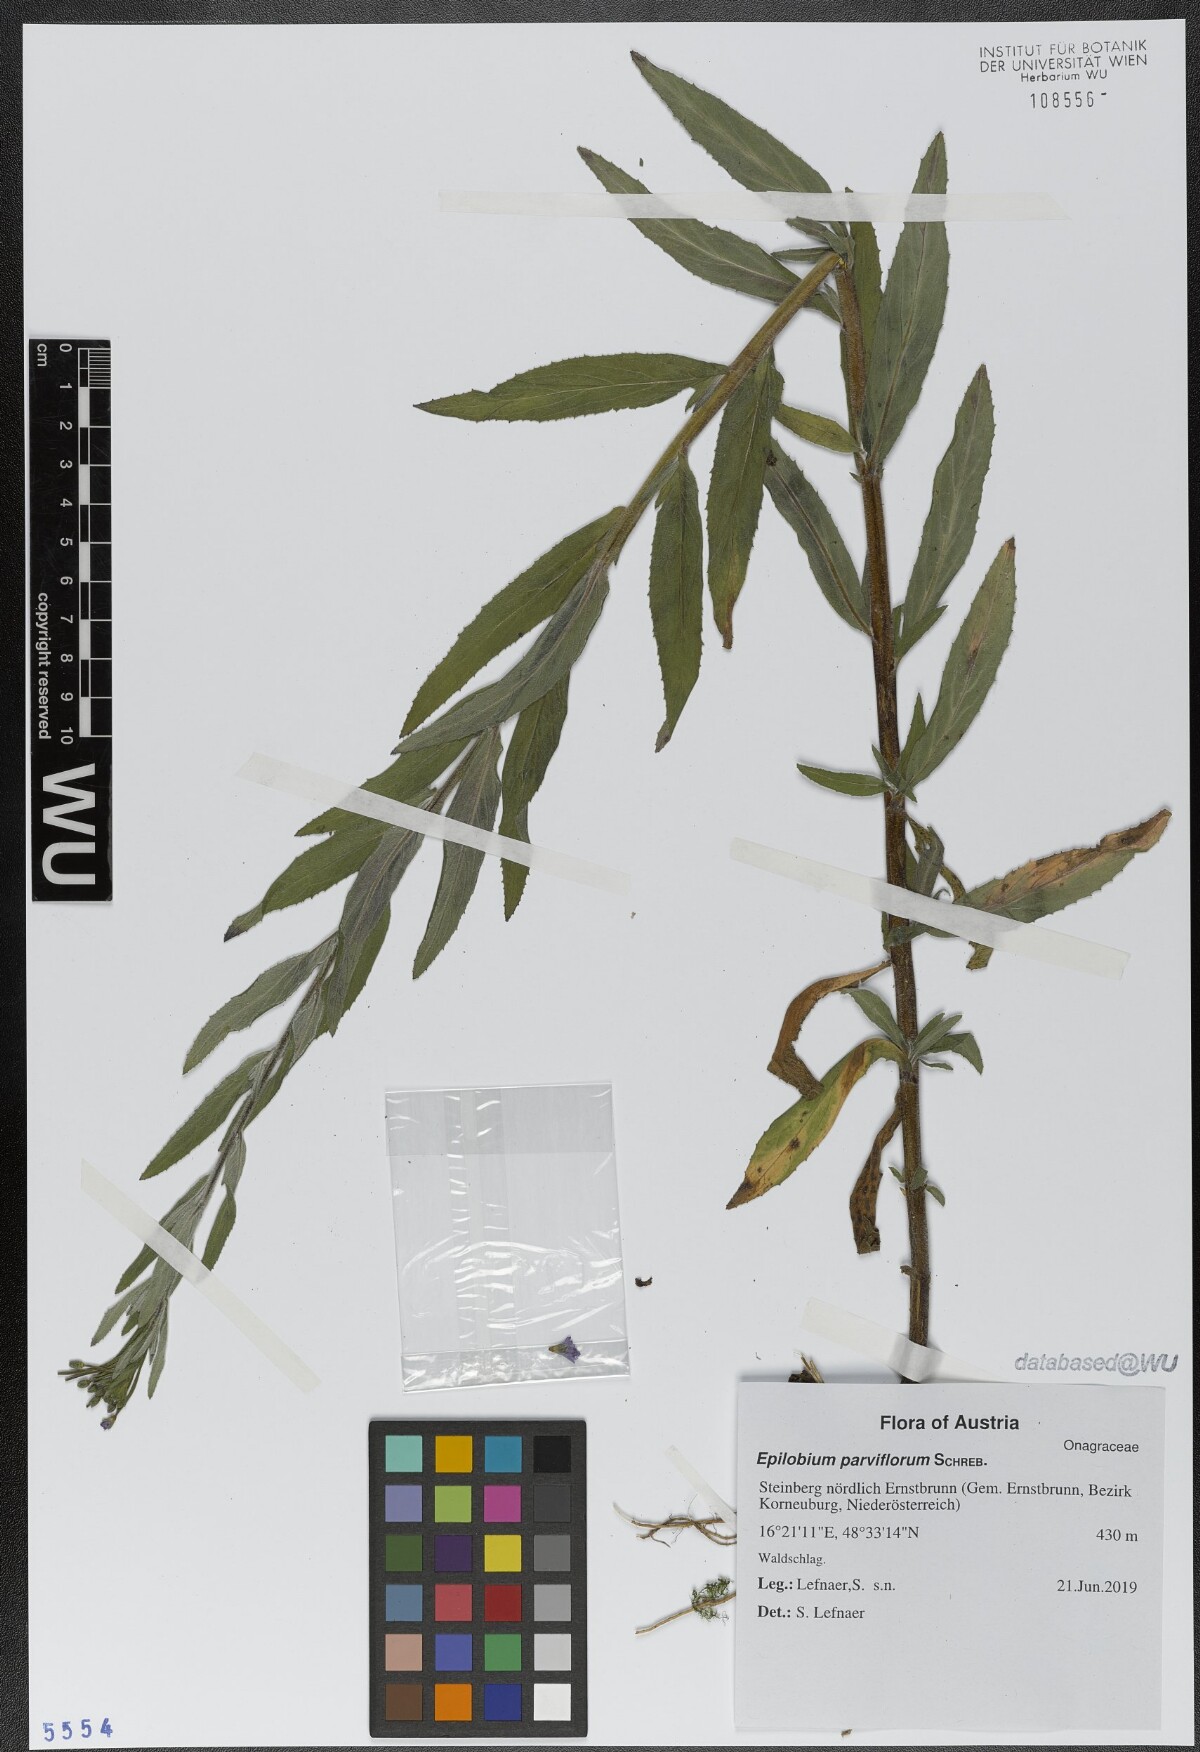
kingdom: Plantae
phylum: Tracheophyta
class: Magnoliopsida
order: Myrtales
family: Onagraceae
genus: Epilobium
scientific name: Epilobium parviflorum
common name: Hoary willowherb
